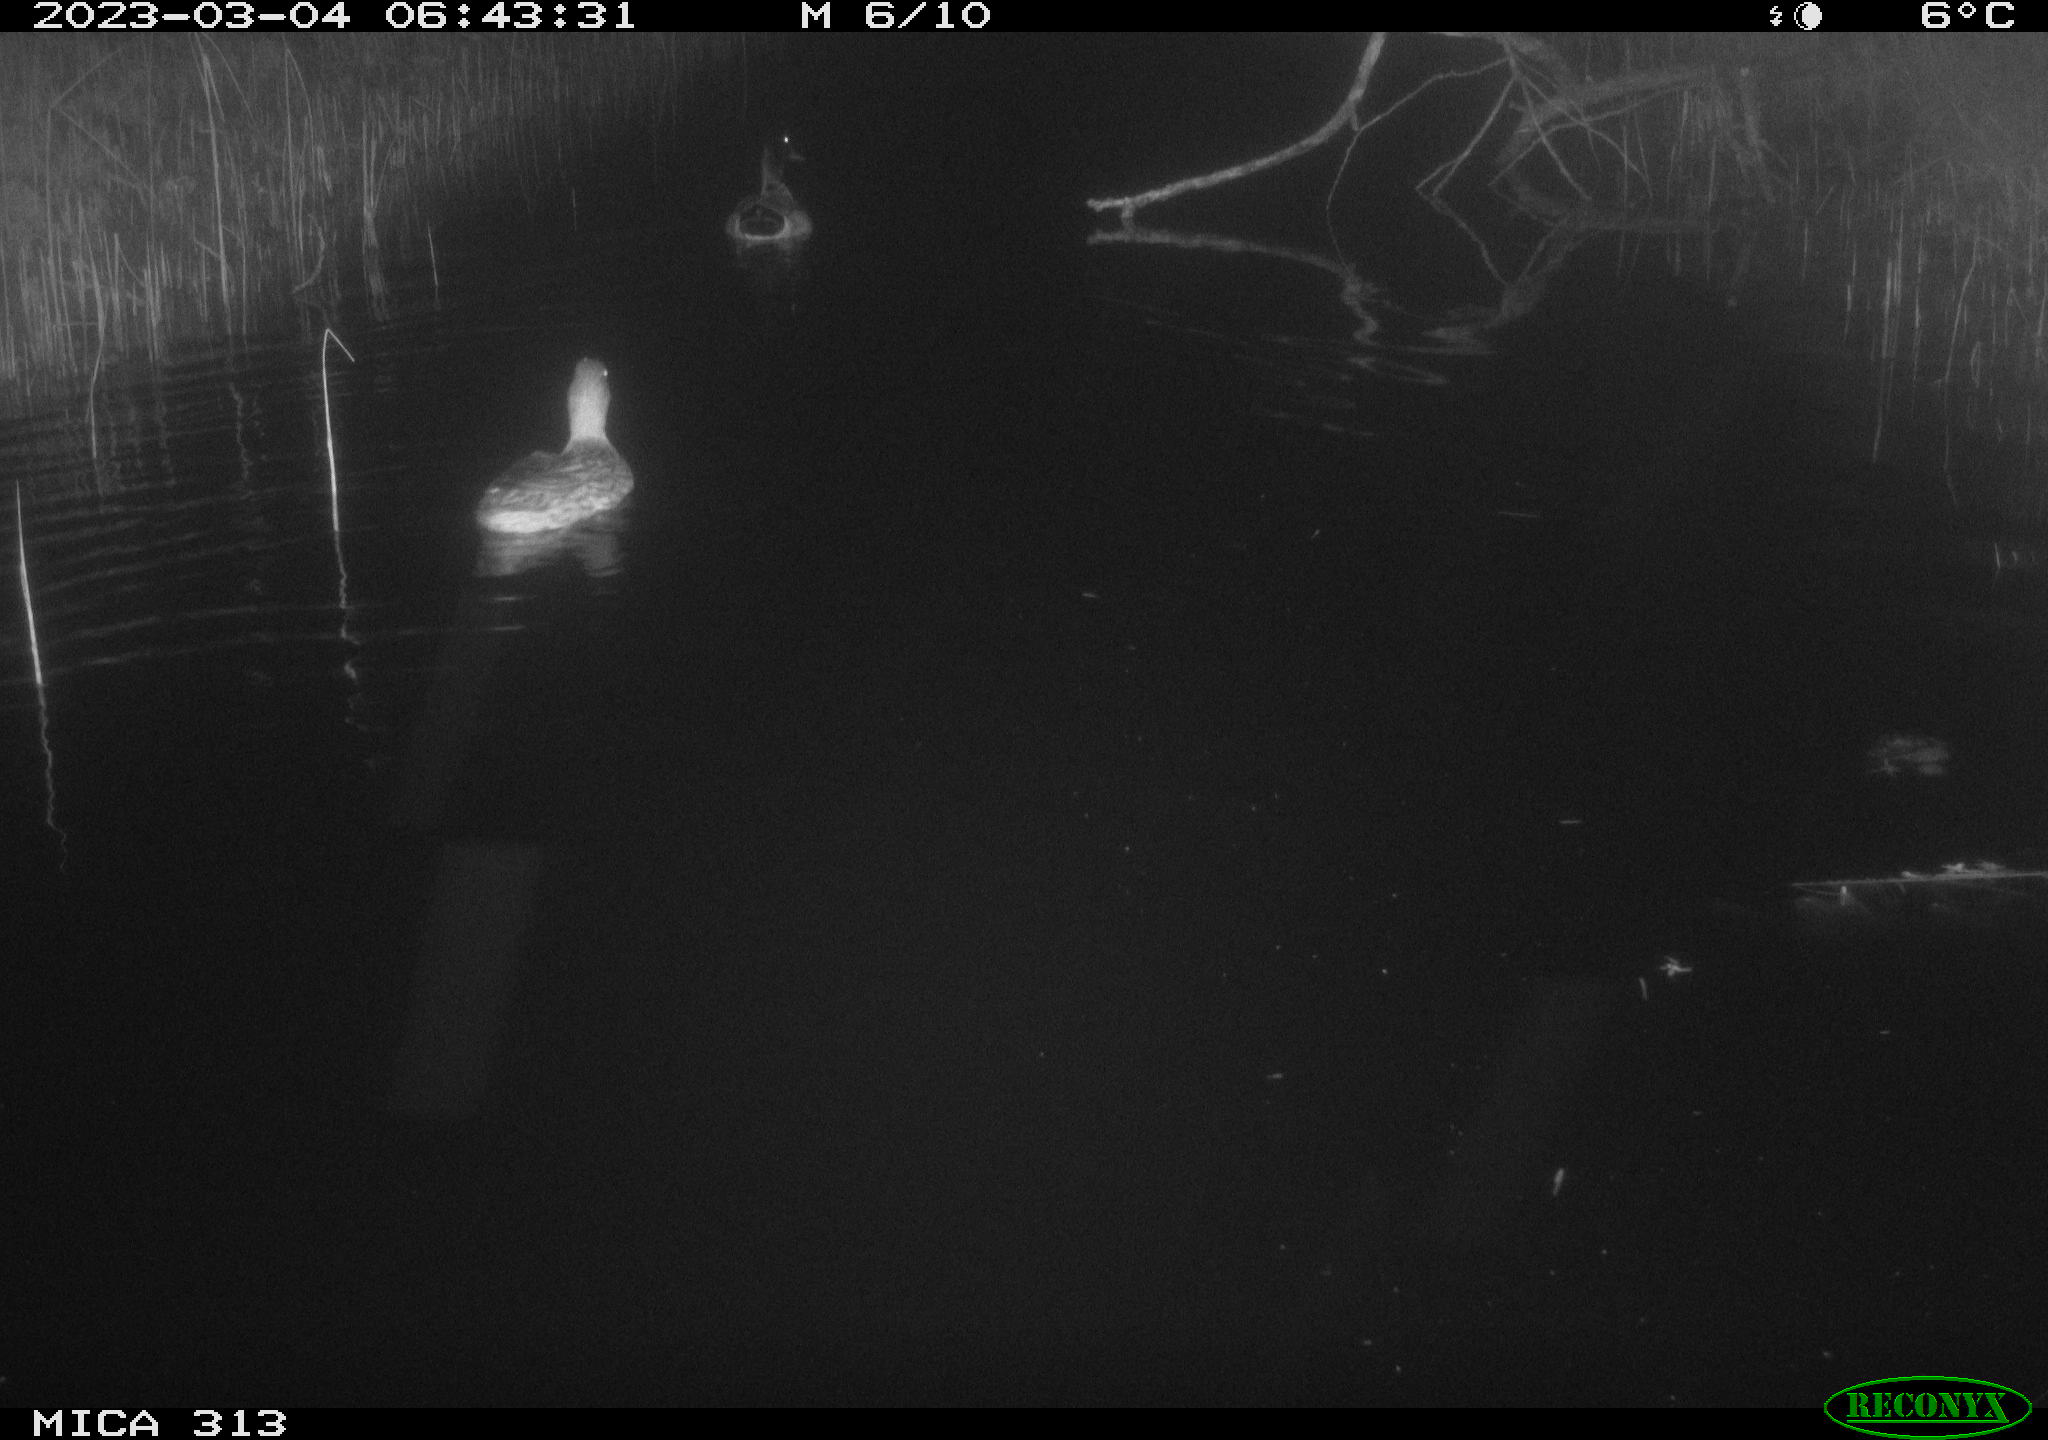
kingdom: Animalia
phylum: Chordata
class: Aves
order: Anseriformes
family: Anatidae
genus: Anas
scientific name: Anas
